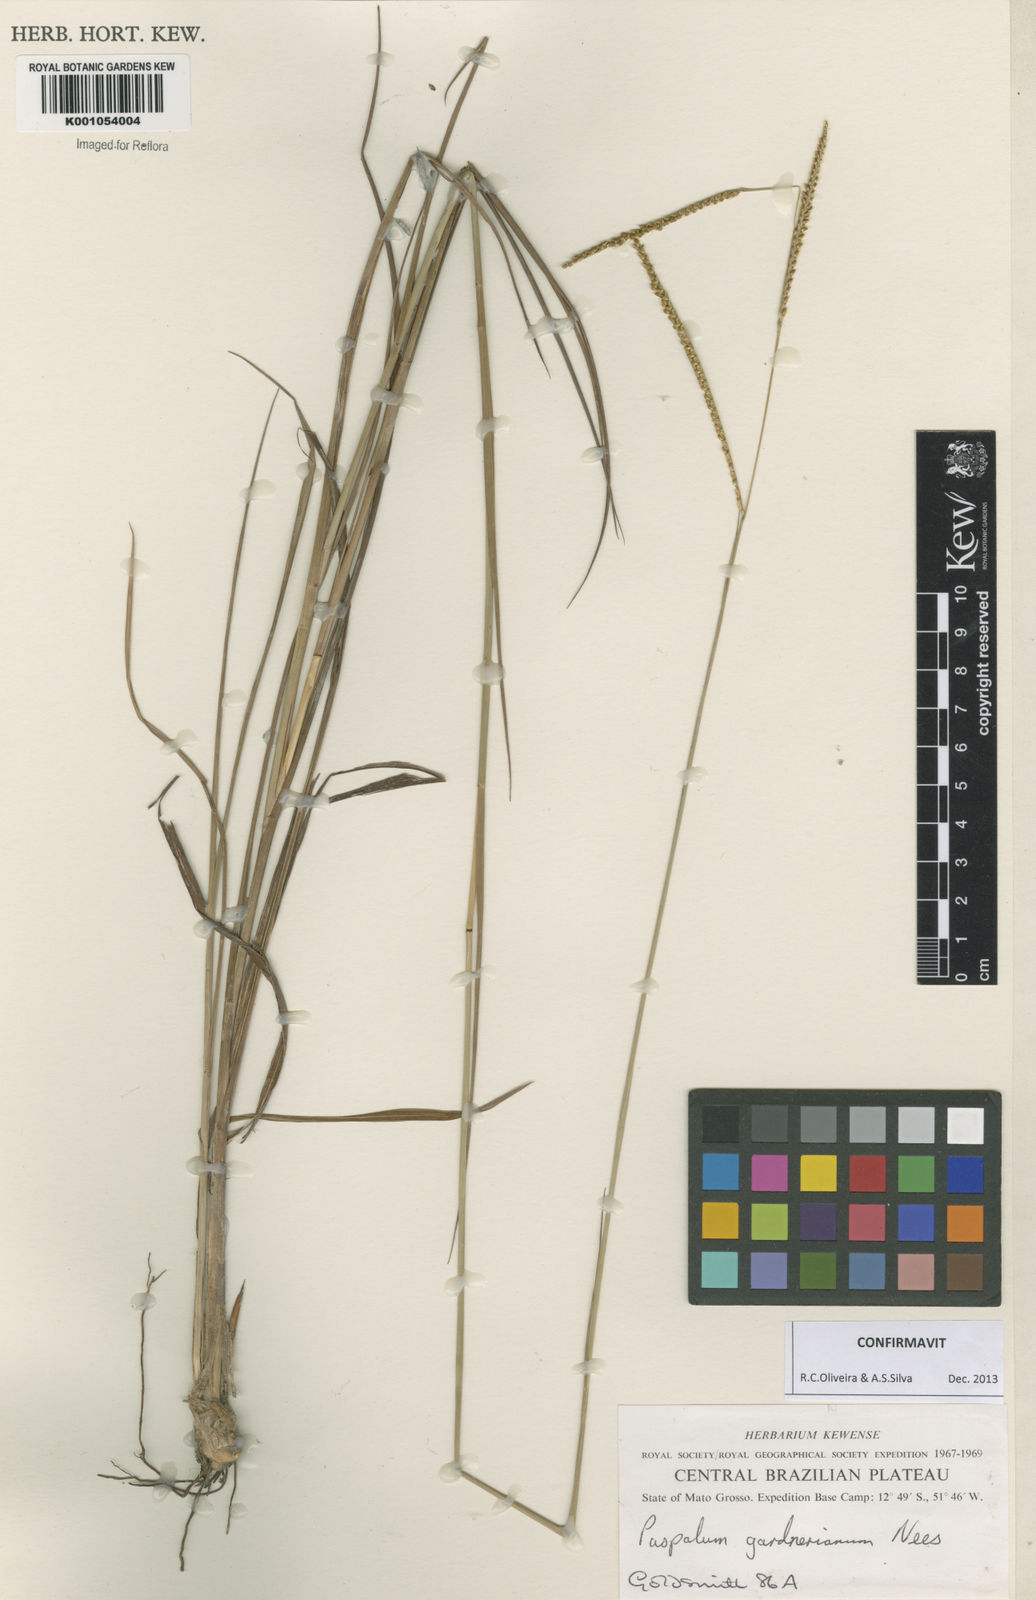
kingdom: Plantae
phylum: Tracheophyta
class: Liliopsida
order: Poales
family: Poaceae
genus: Paspalum
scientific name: Paspalum gardnerianum
